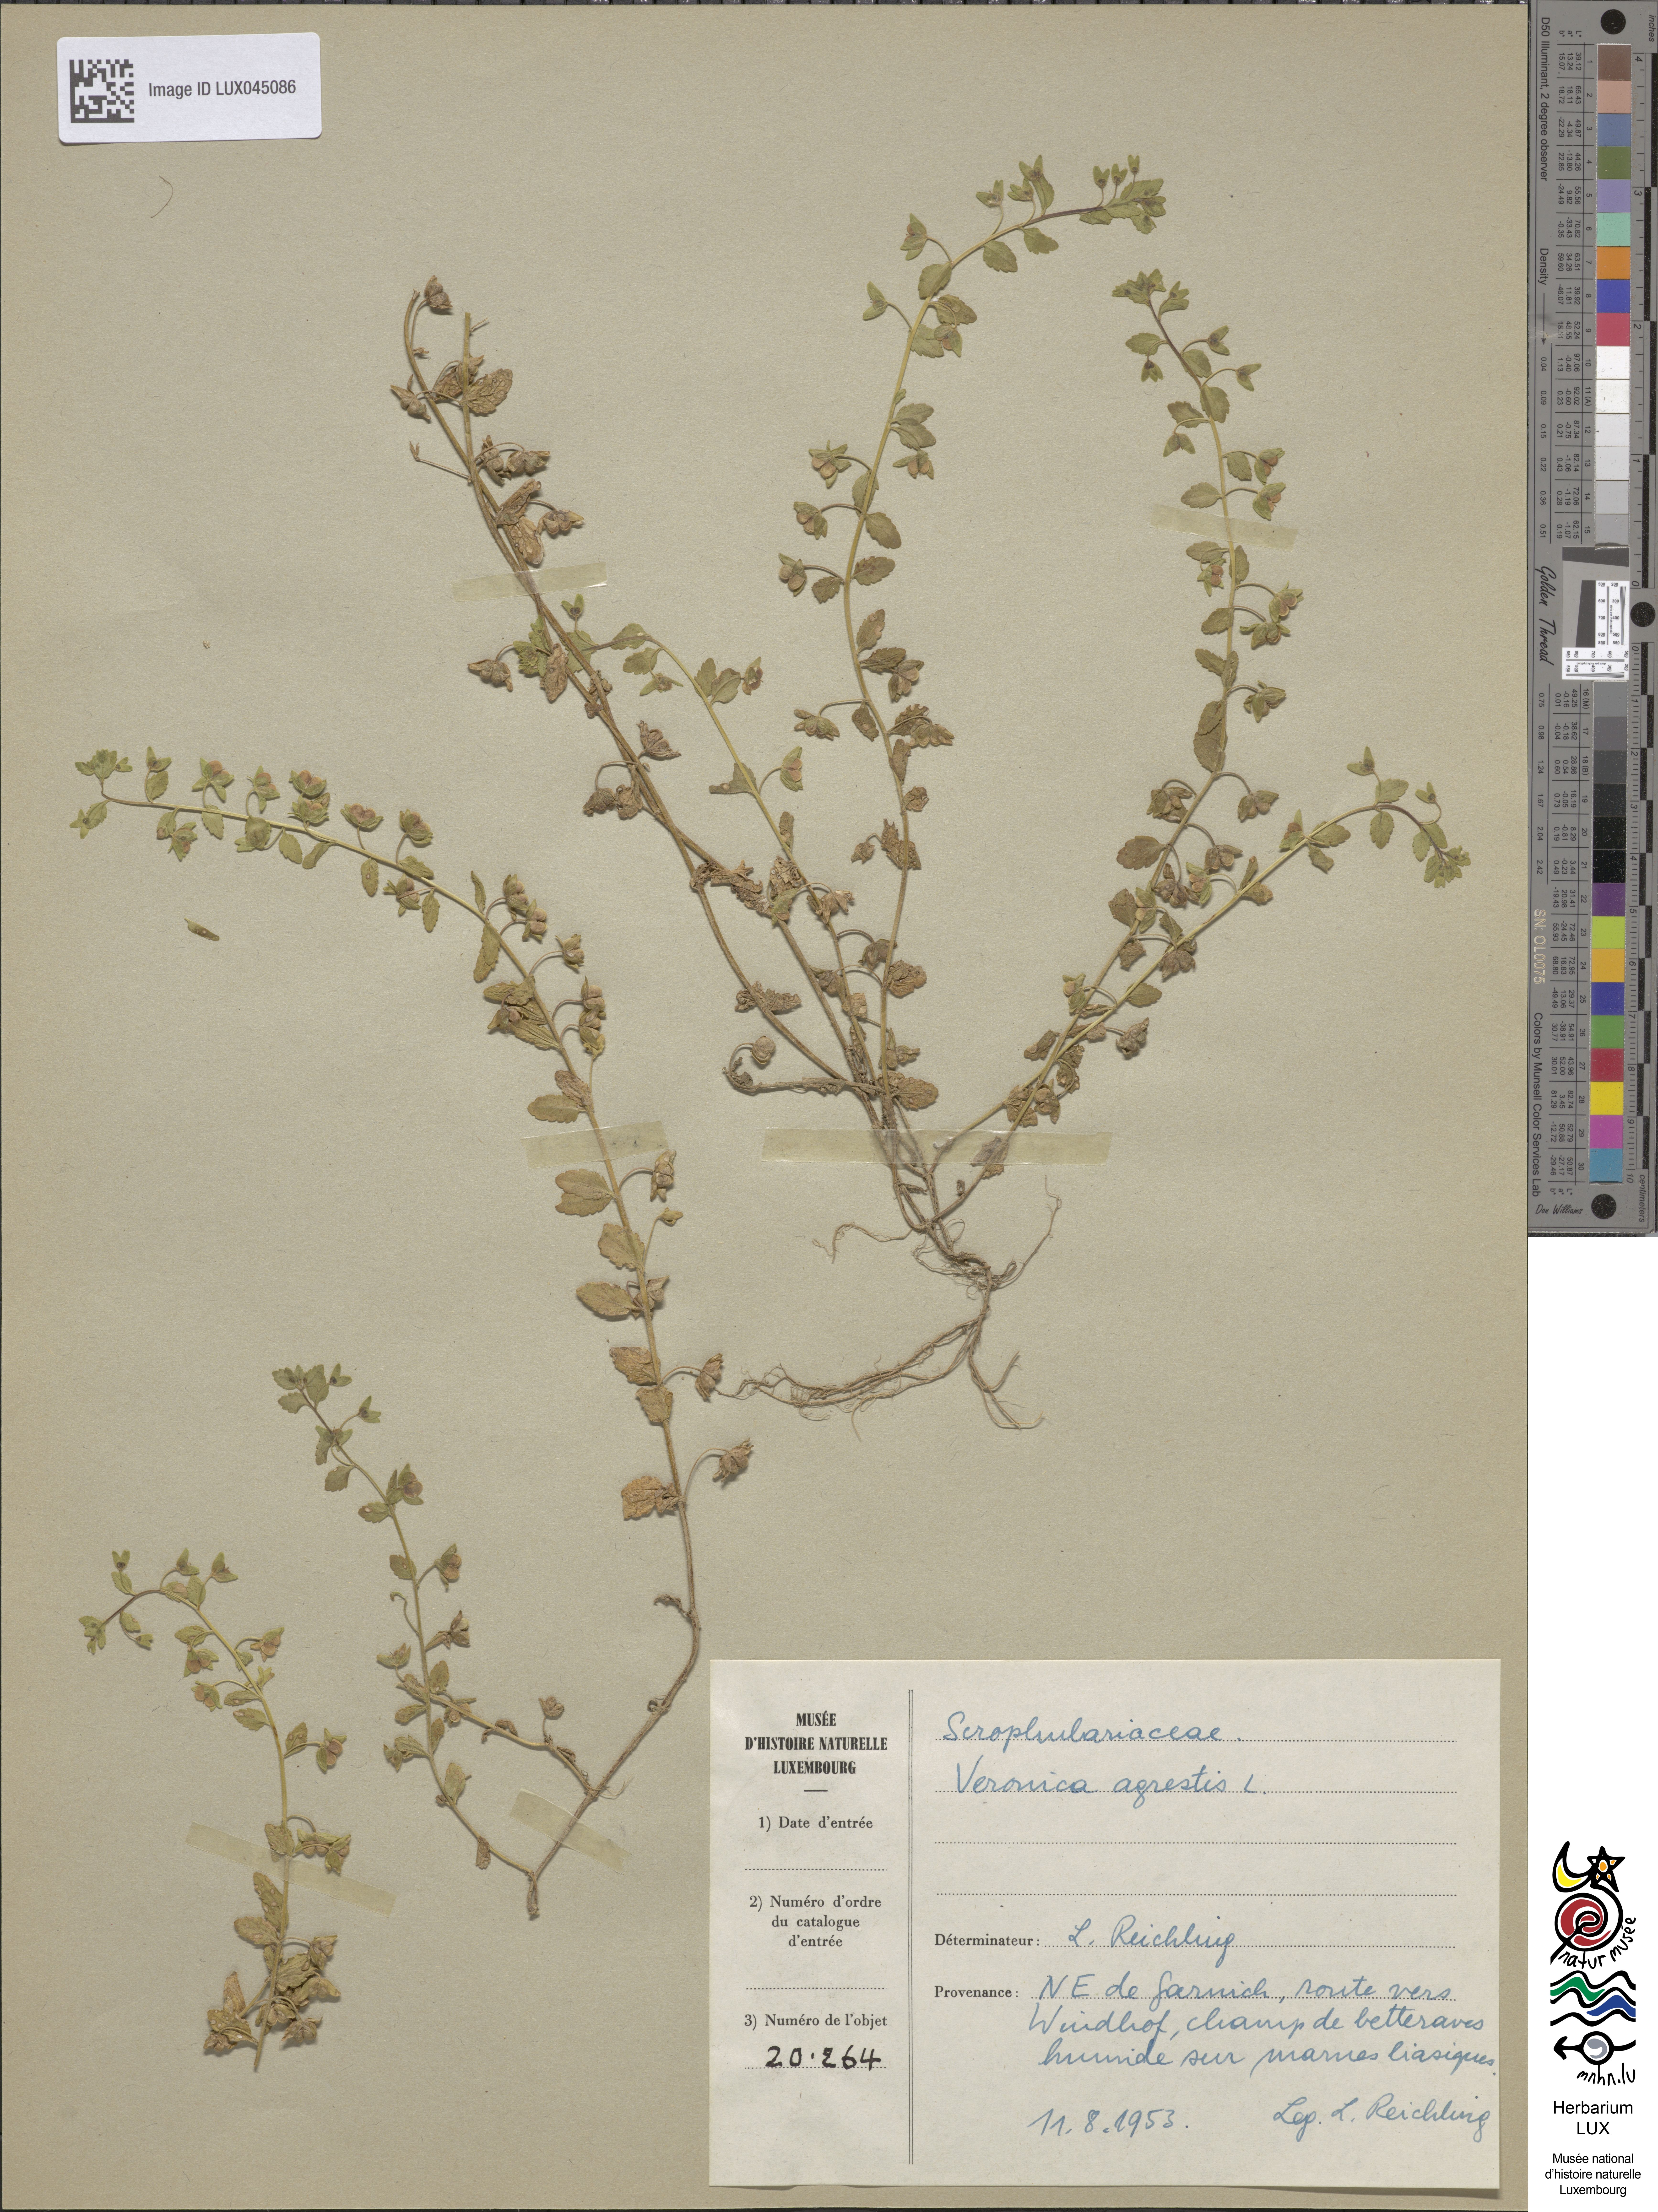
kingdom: Plantae
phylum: Tracheophyta
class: Magnoliopsida
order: Lamiales
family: Plantaginaceae
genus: Veronica
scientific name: Veronica agrestis
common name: Green field-speedwell
